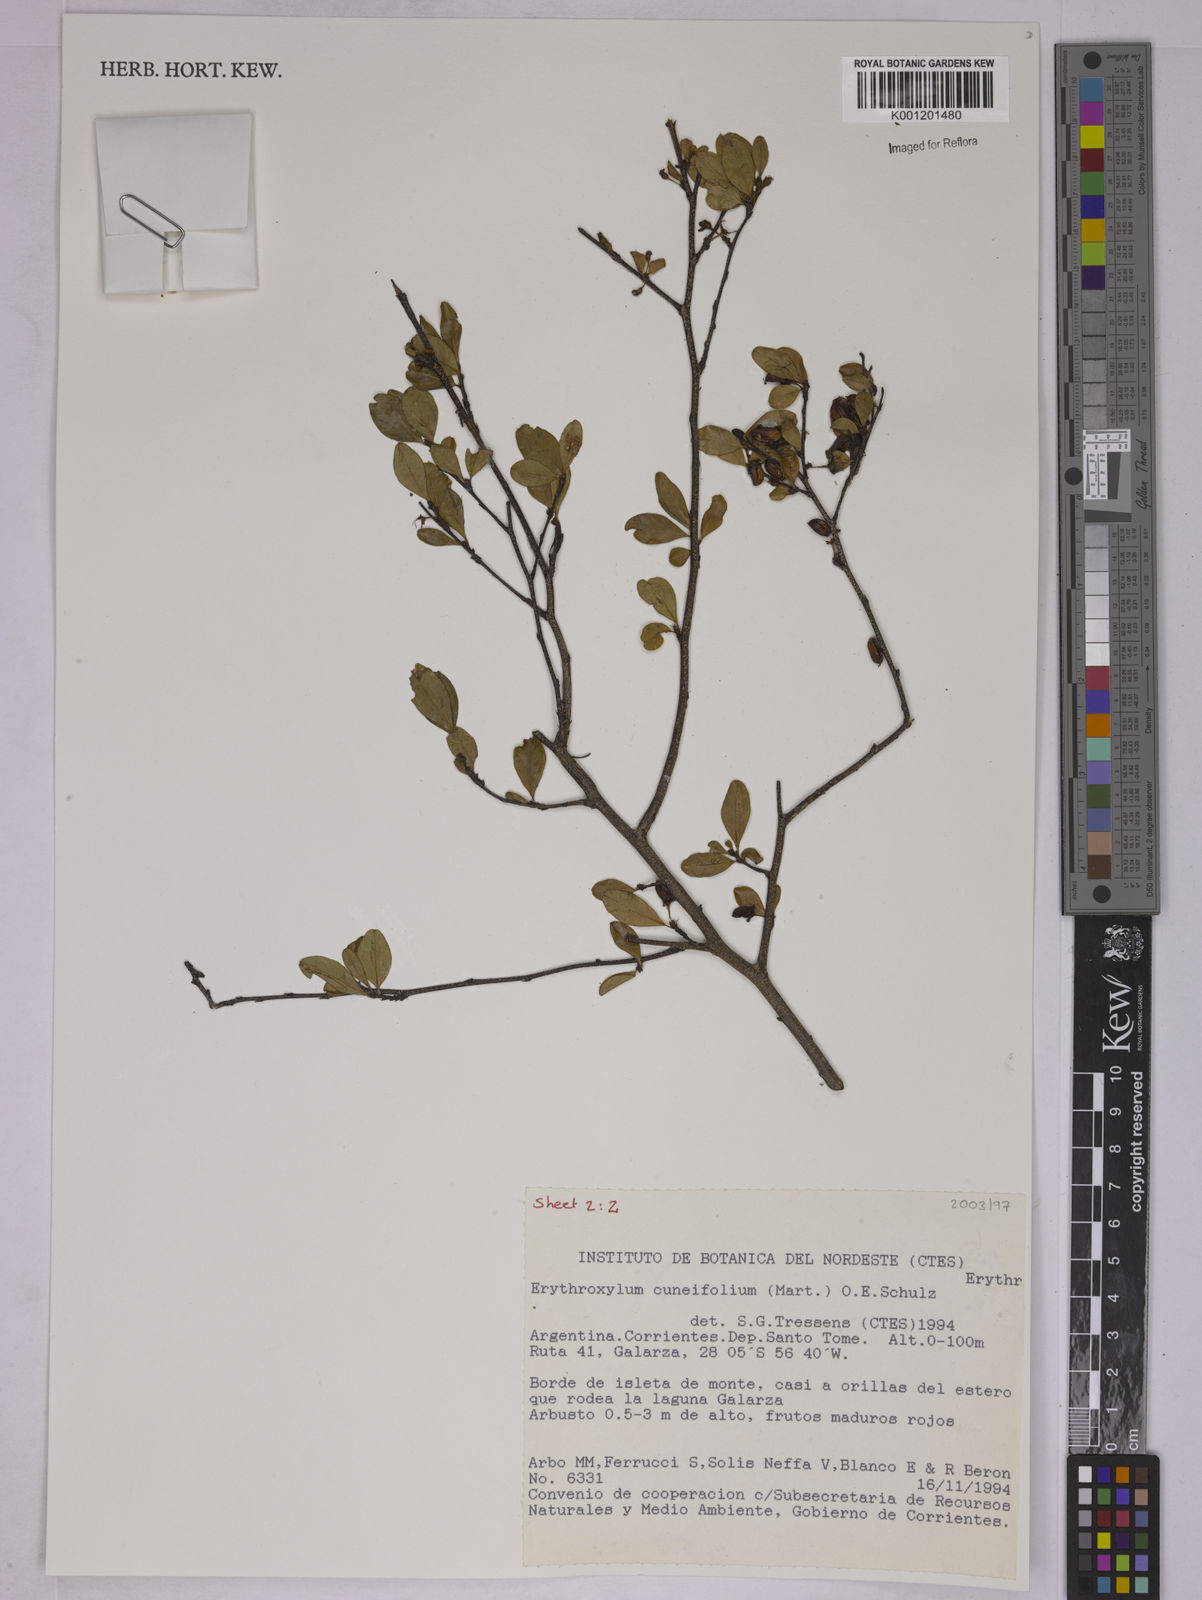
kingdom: Plantae
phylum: Tracheophyta
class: Magnoliopsida
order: Malpighiales
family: Erythroxylaceae
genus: Erythroxylum
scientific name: Erythroxylum cuneifolium
